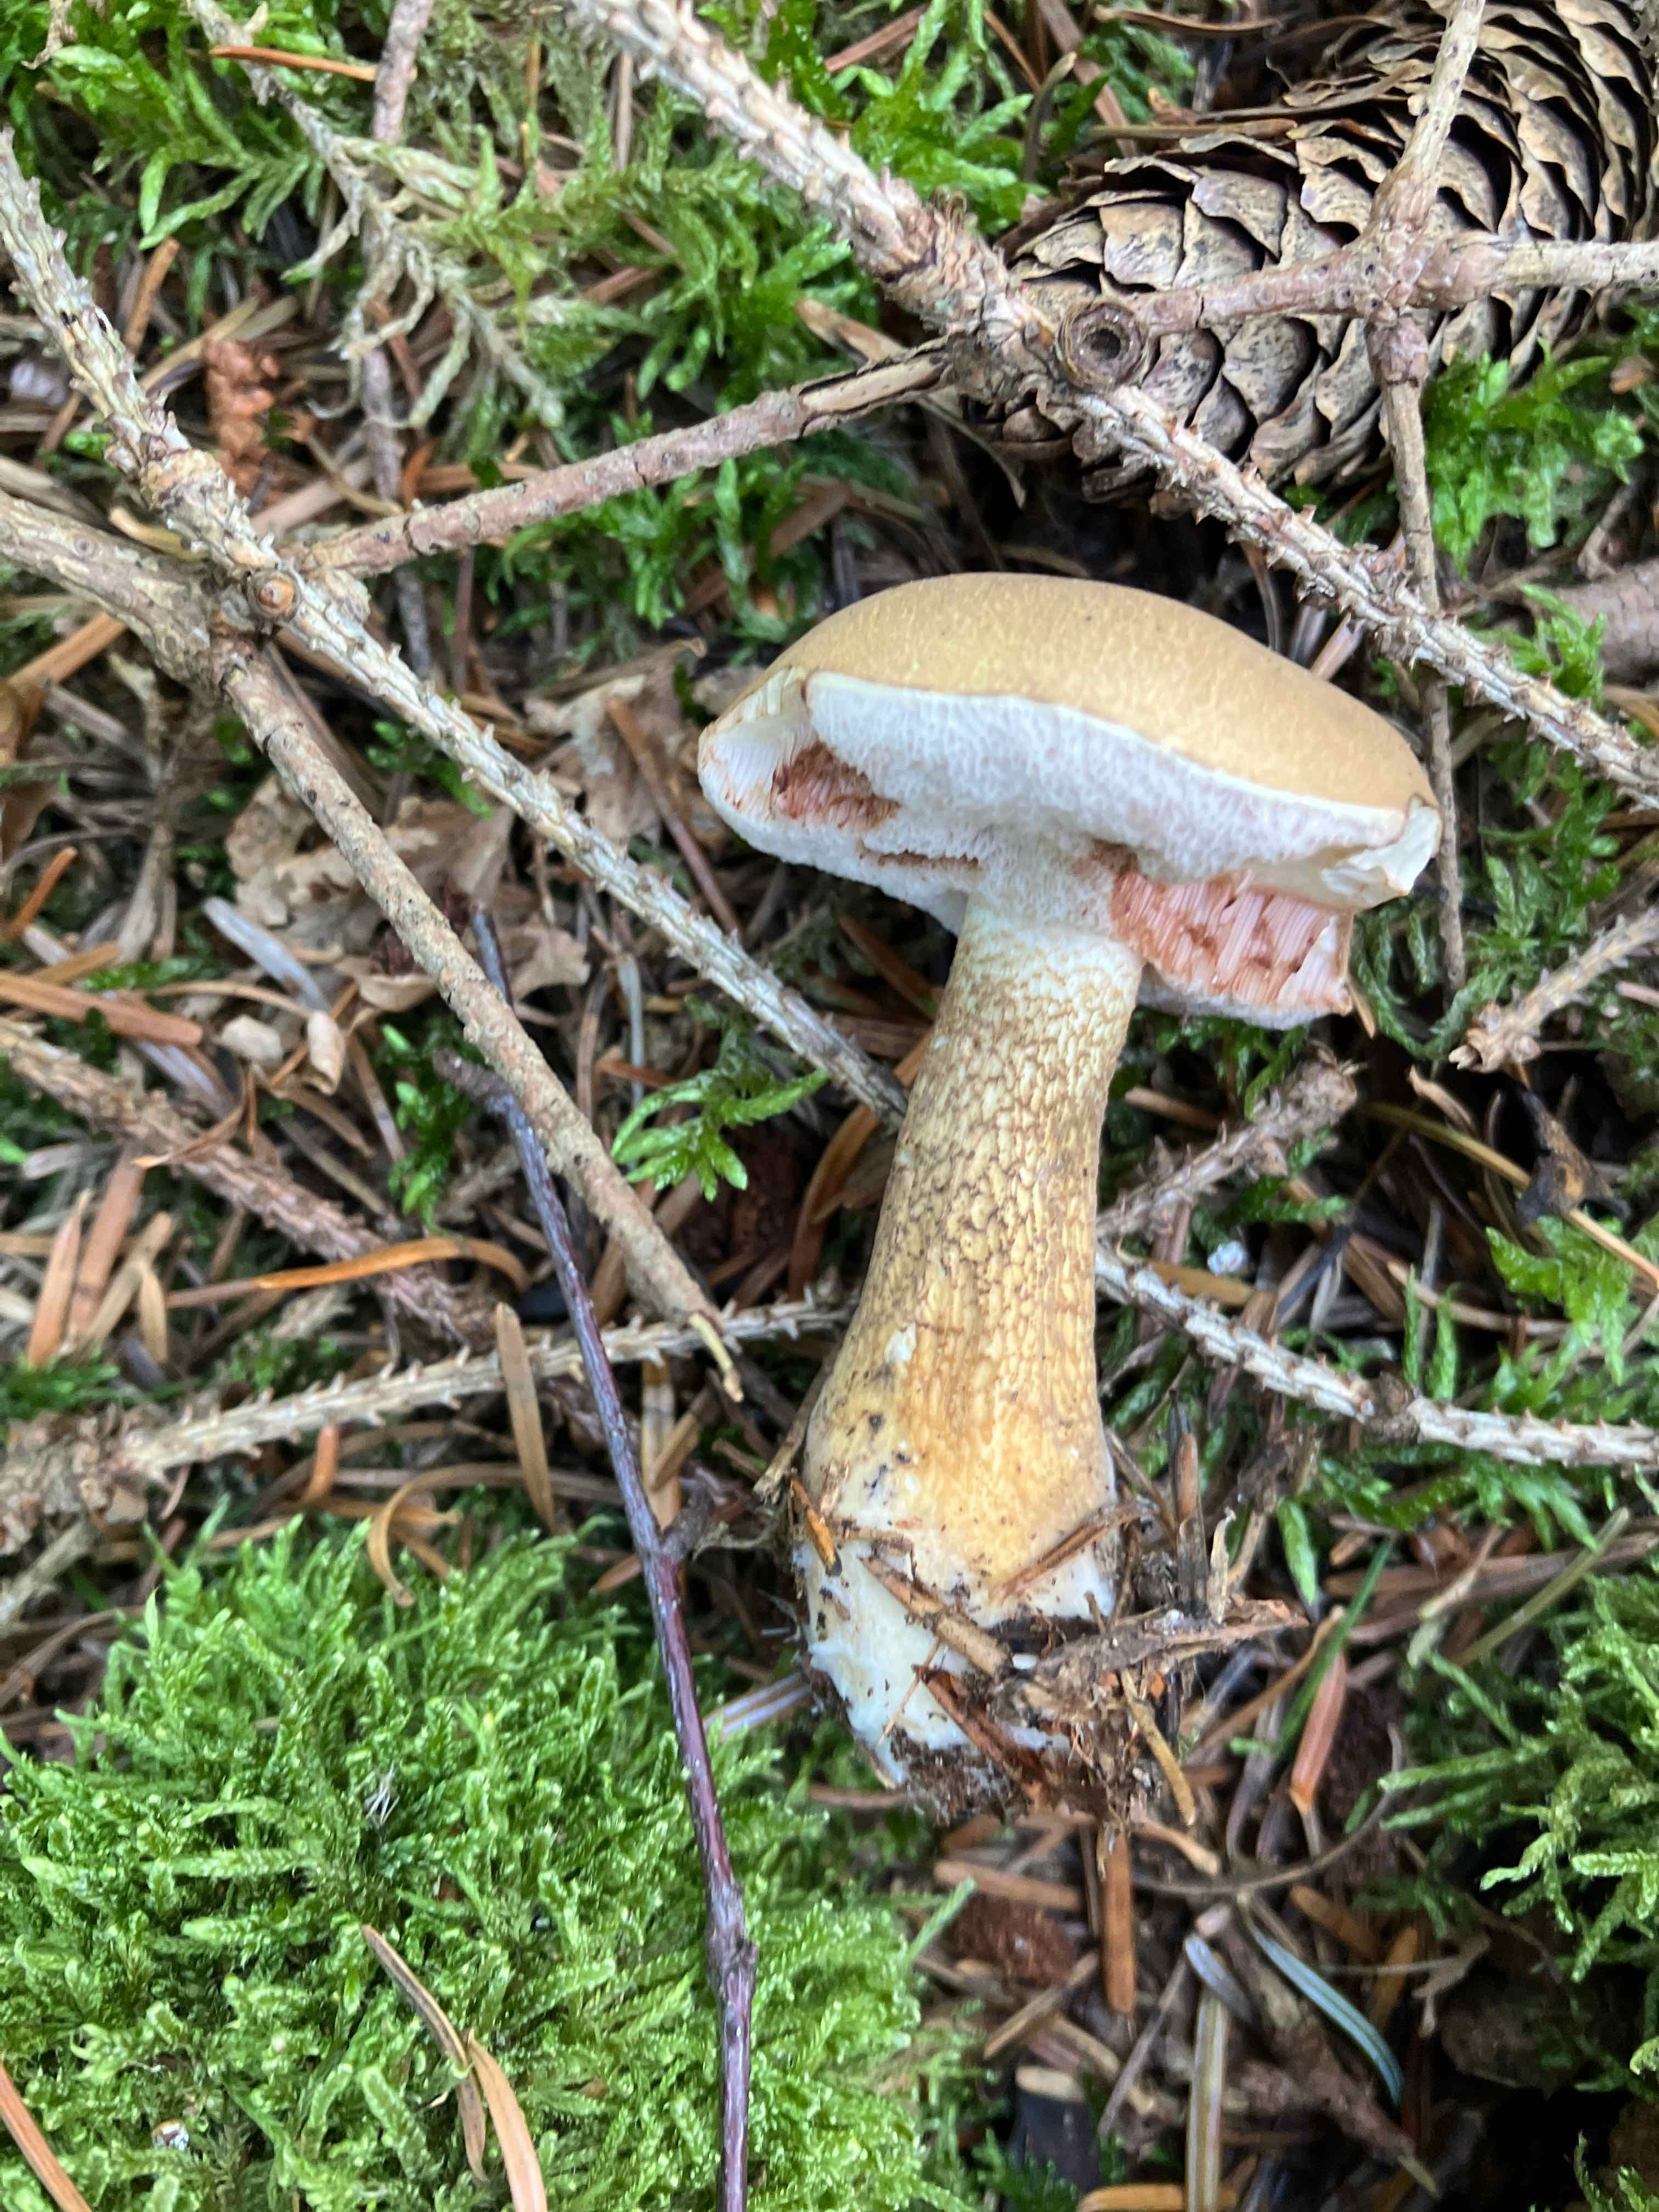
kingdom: Fungi
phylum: Basidiomycota
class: Agaricomycetes
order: Boletales
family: Boletaceae
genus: Tylopilus
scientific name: Tylopilus felleus
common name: galderørhat
